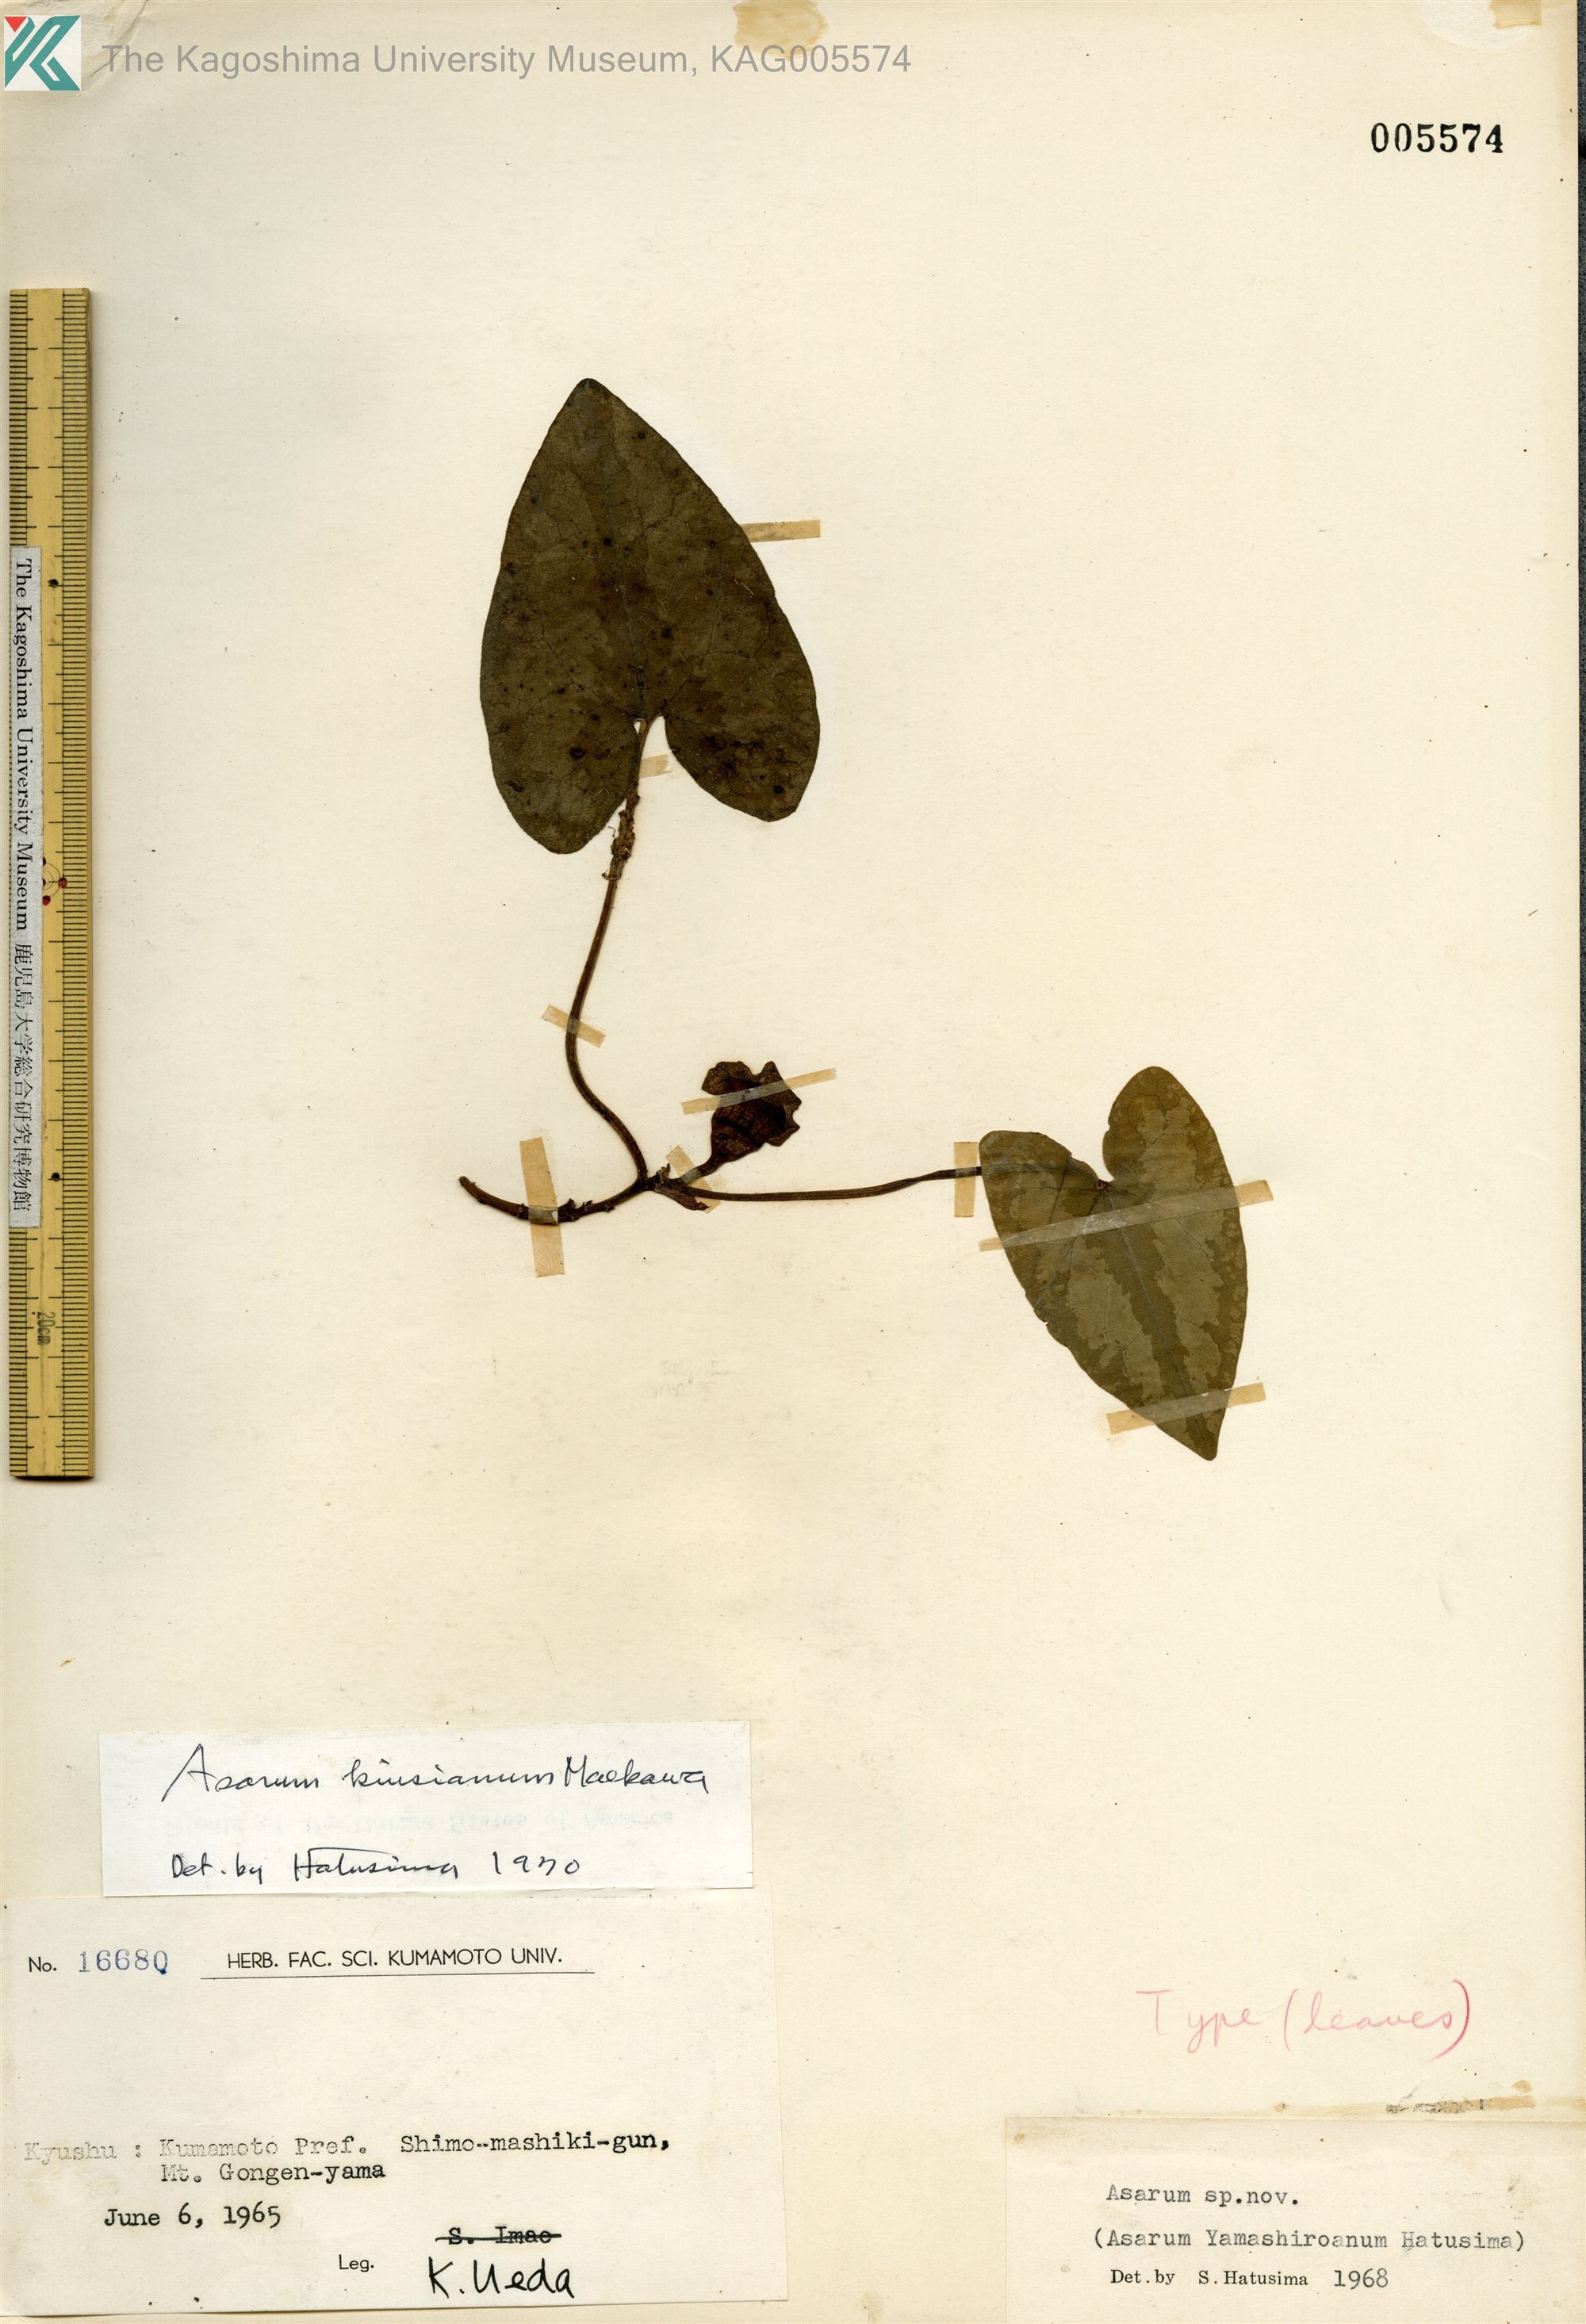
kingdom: Plantae
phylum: Tracheophyta
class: Magnoliopsida
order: Piperales
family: Aristolochiaceae
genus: Asarum
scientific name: Asarum kiusianum
